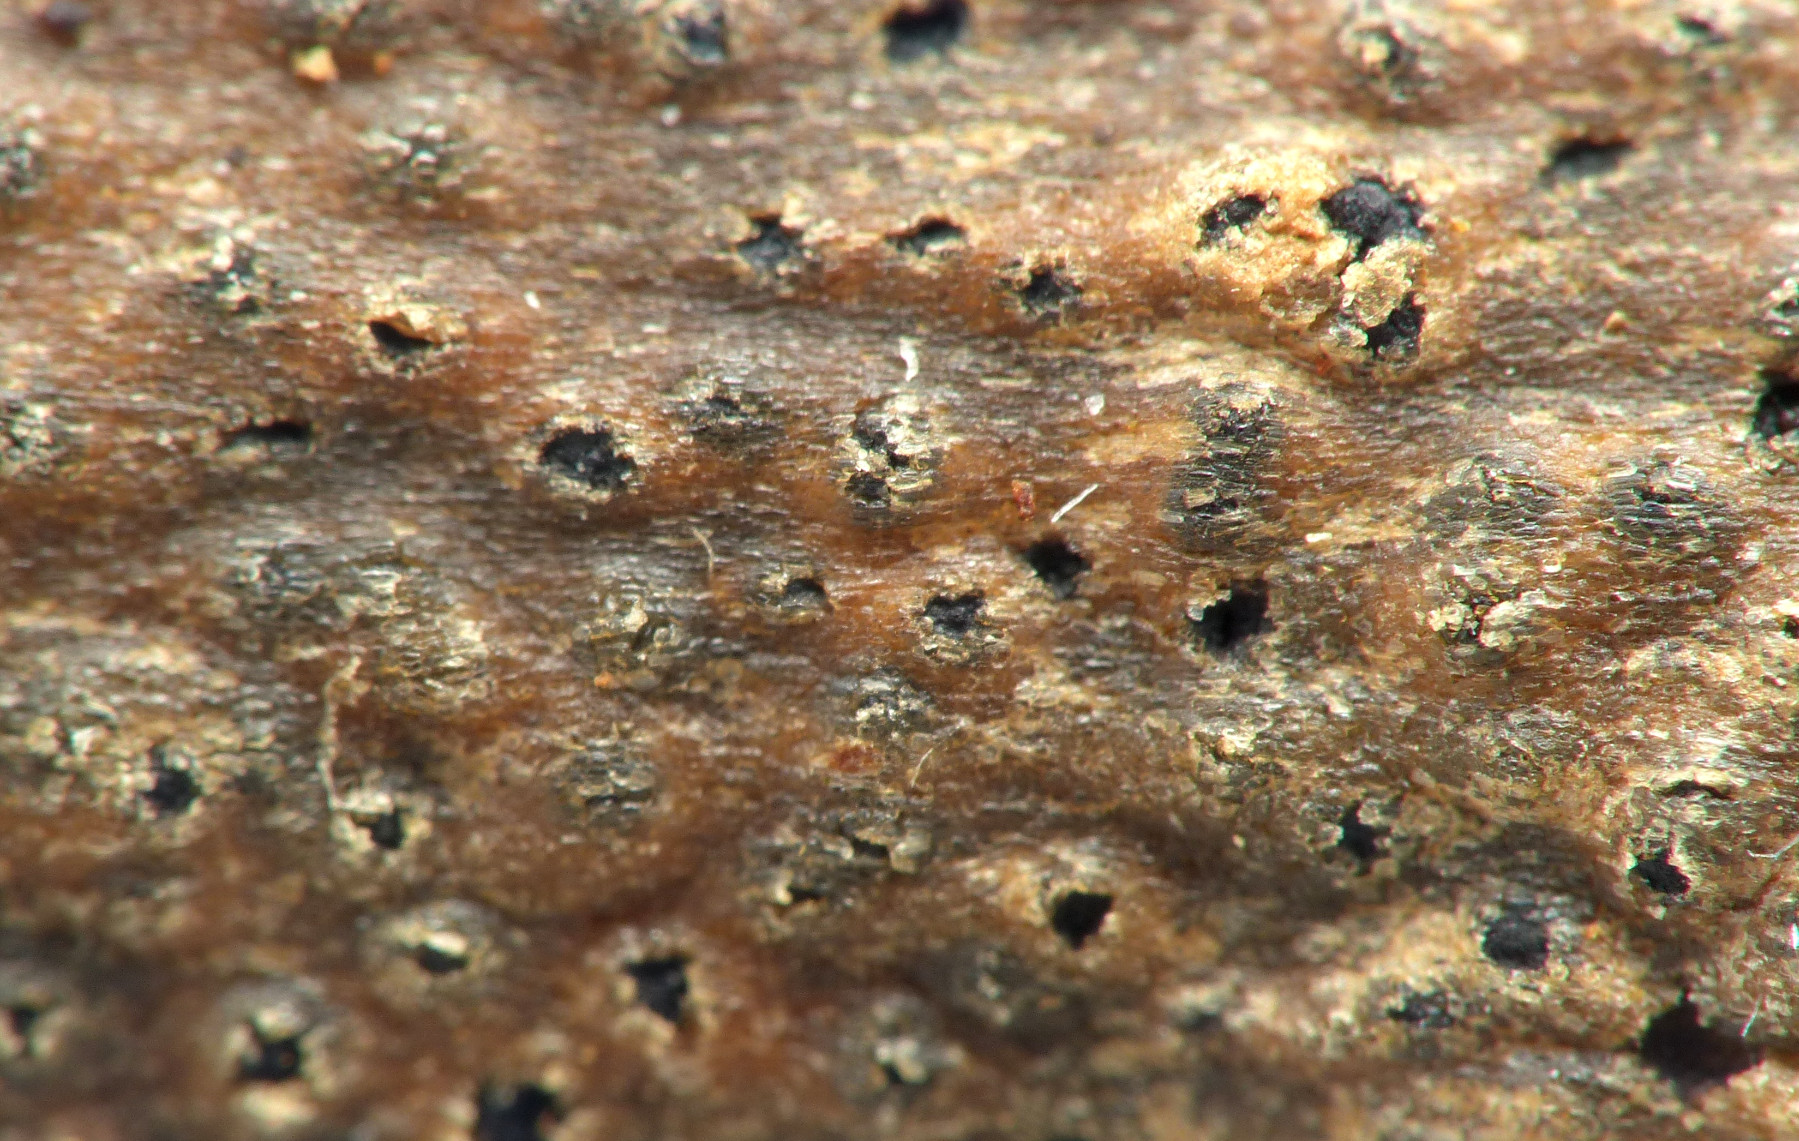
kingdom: Fungi
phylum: Ascomycota
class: Dothideomycetes
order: Botryosphaeriales
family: Botryosphaeriaceae
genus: Botryosphaeria
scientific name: Botryosphaeria stevensii
